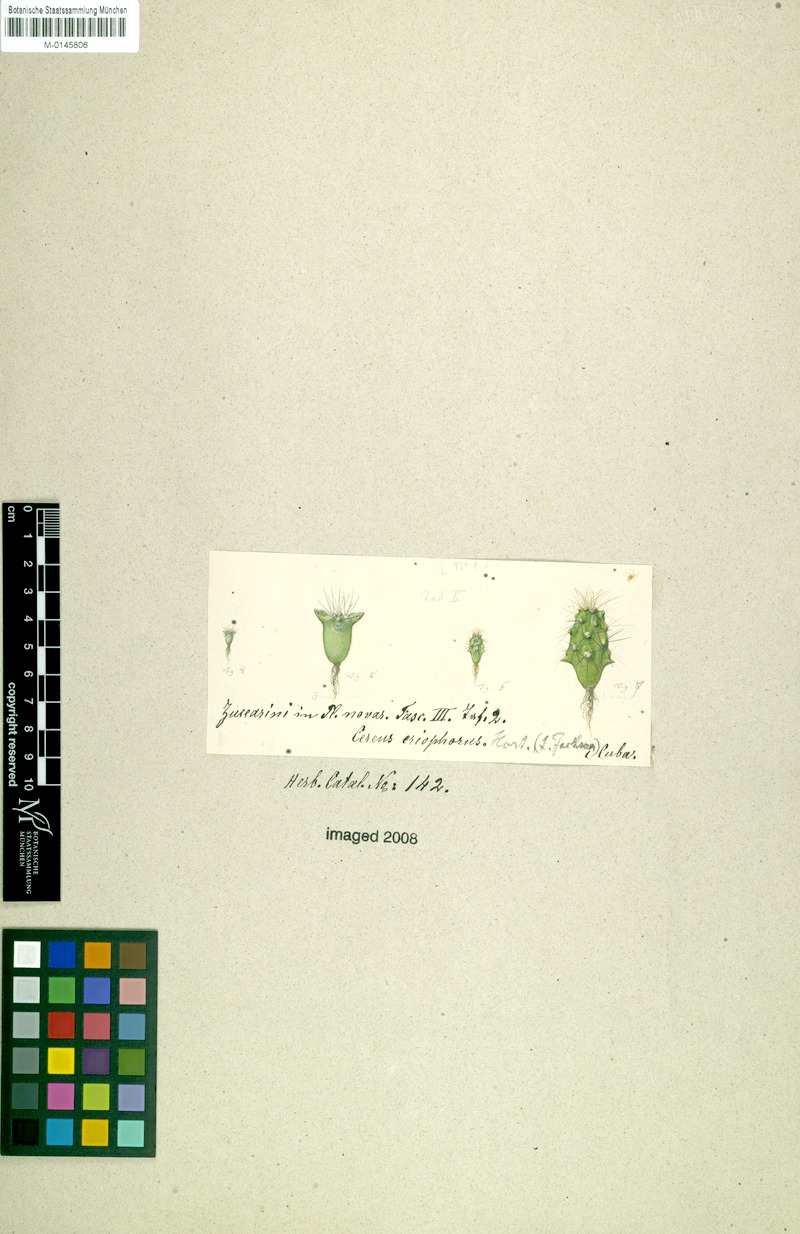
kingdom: Plantae
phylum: Tracheophyta
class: Magnoliopsida
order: Caryophyllales
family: Cactaceae
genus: Harrisia
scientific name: Harrisia eriophora
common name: Fragrant apple cactus
